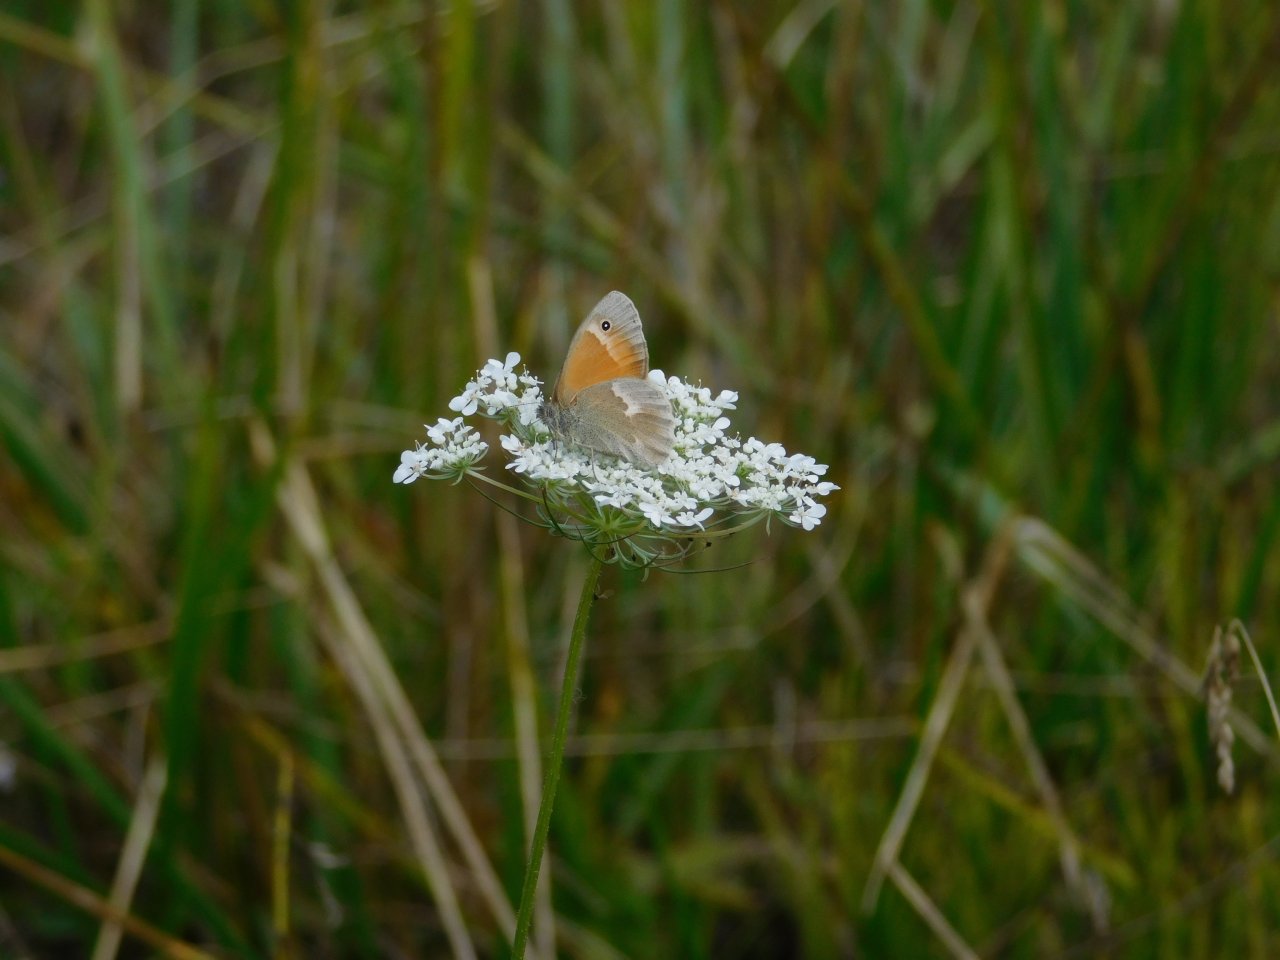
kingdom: Animalia
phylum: Arthropoda
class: Insecta
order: Lepidoptera
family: Nymphalidae
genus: Coenonympha
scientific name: Coenonympha tullia
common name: Large Heath
